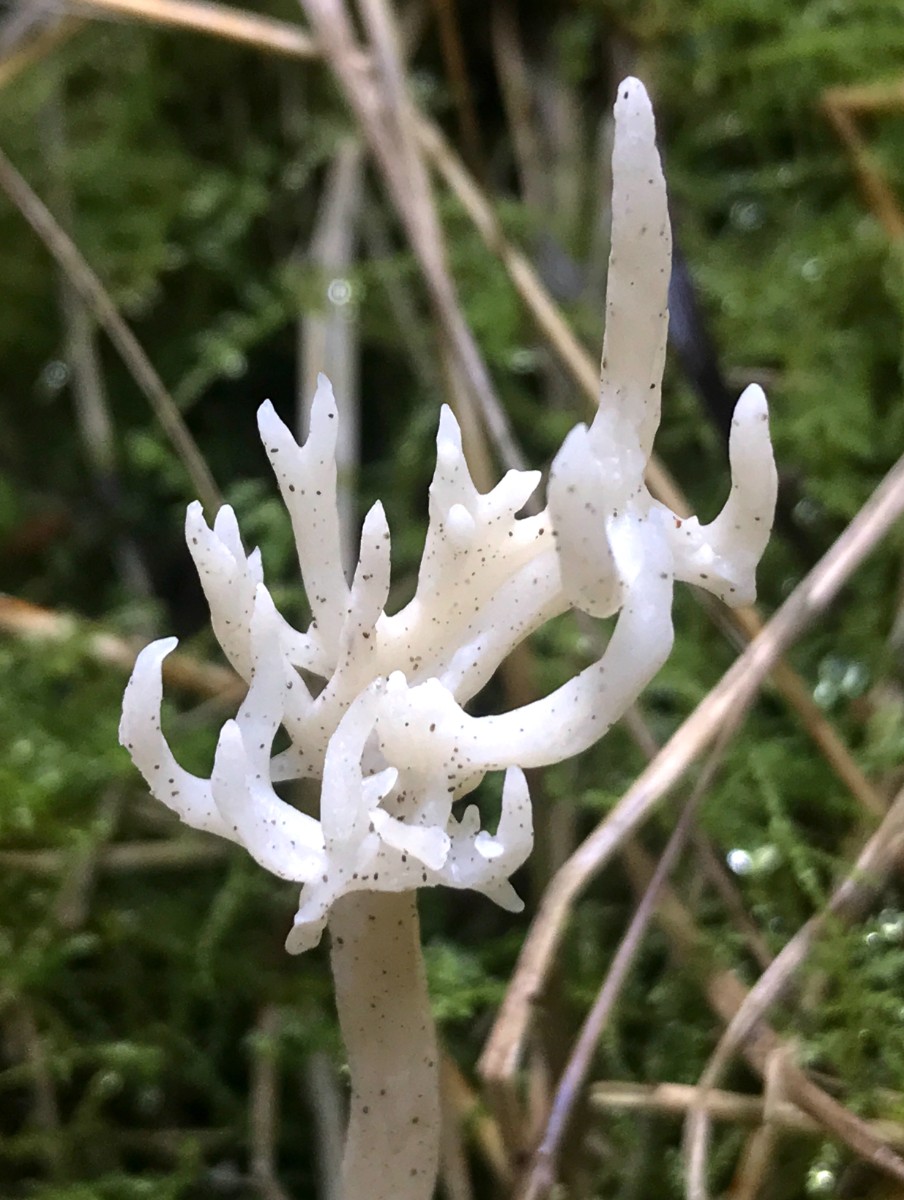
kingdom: Fungi
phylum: Basidiomycota
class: Agaricomycetes
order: Cantharellales
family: Hydnaceae
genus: Clavulina
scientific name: Clavulina
